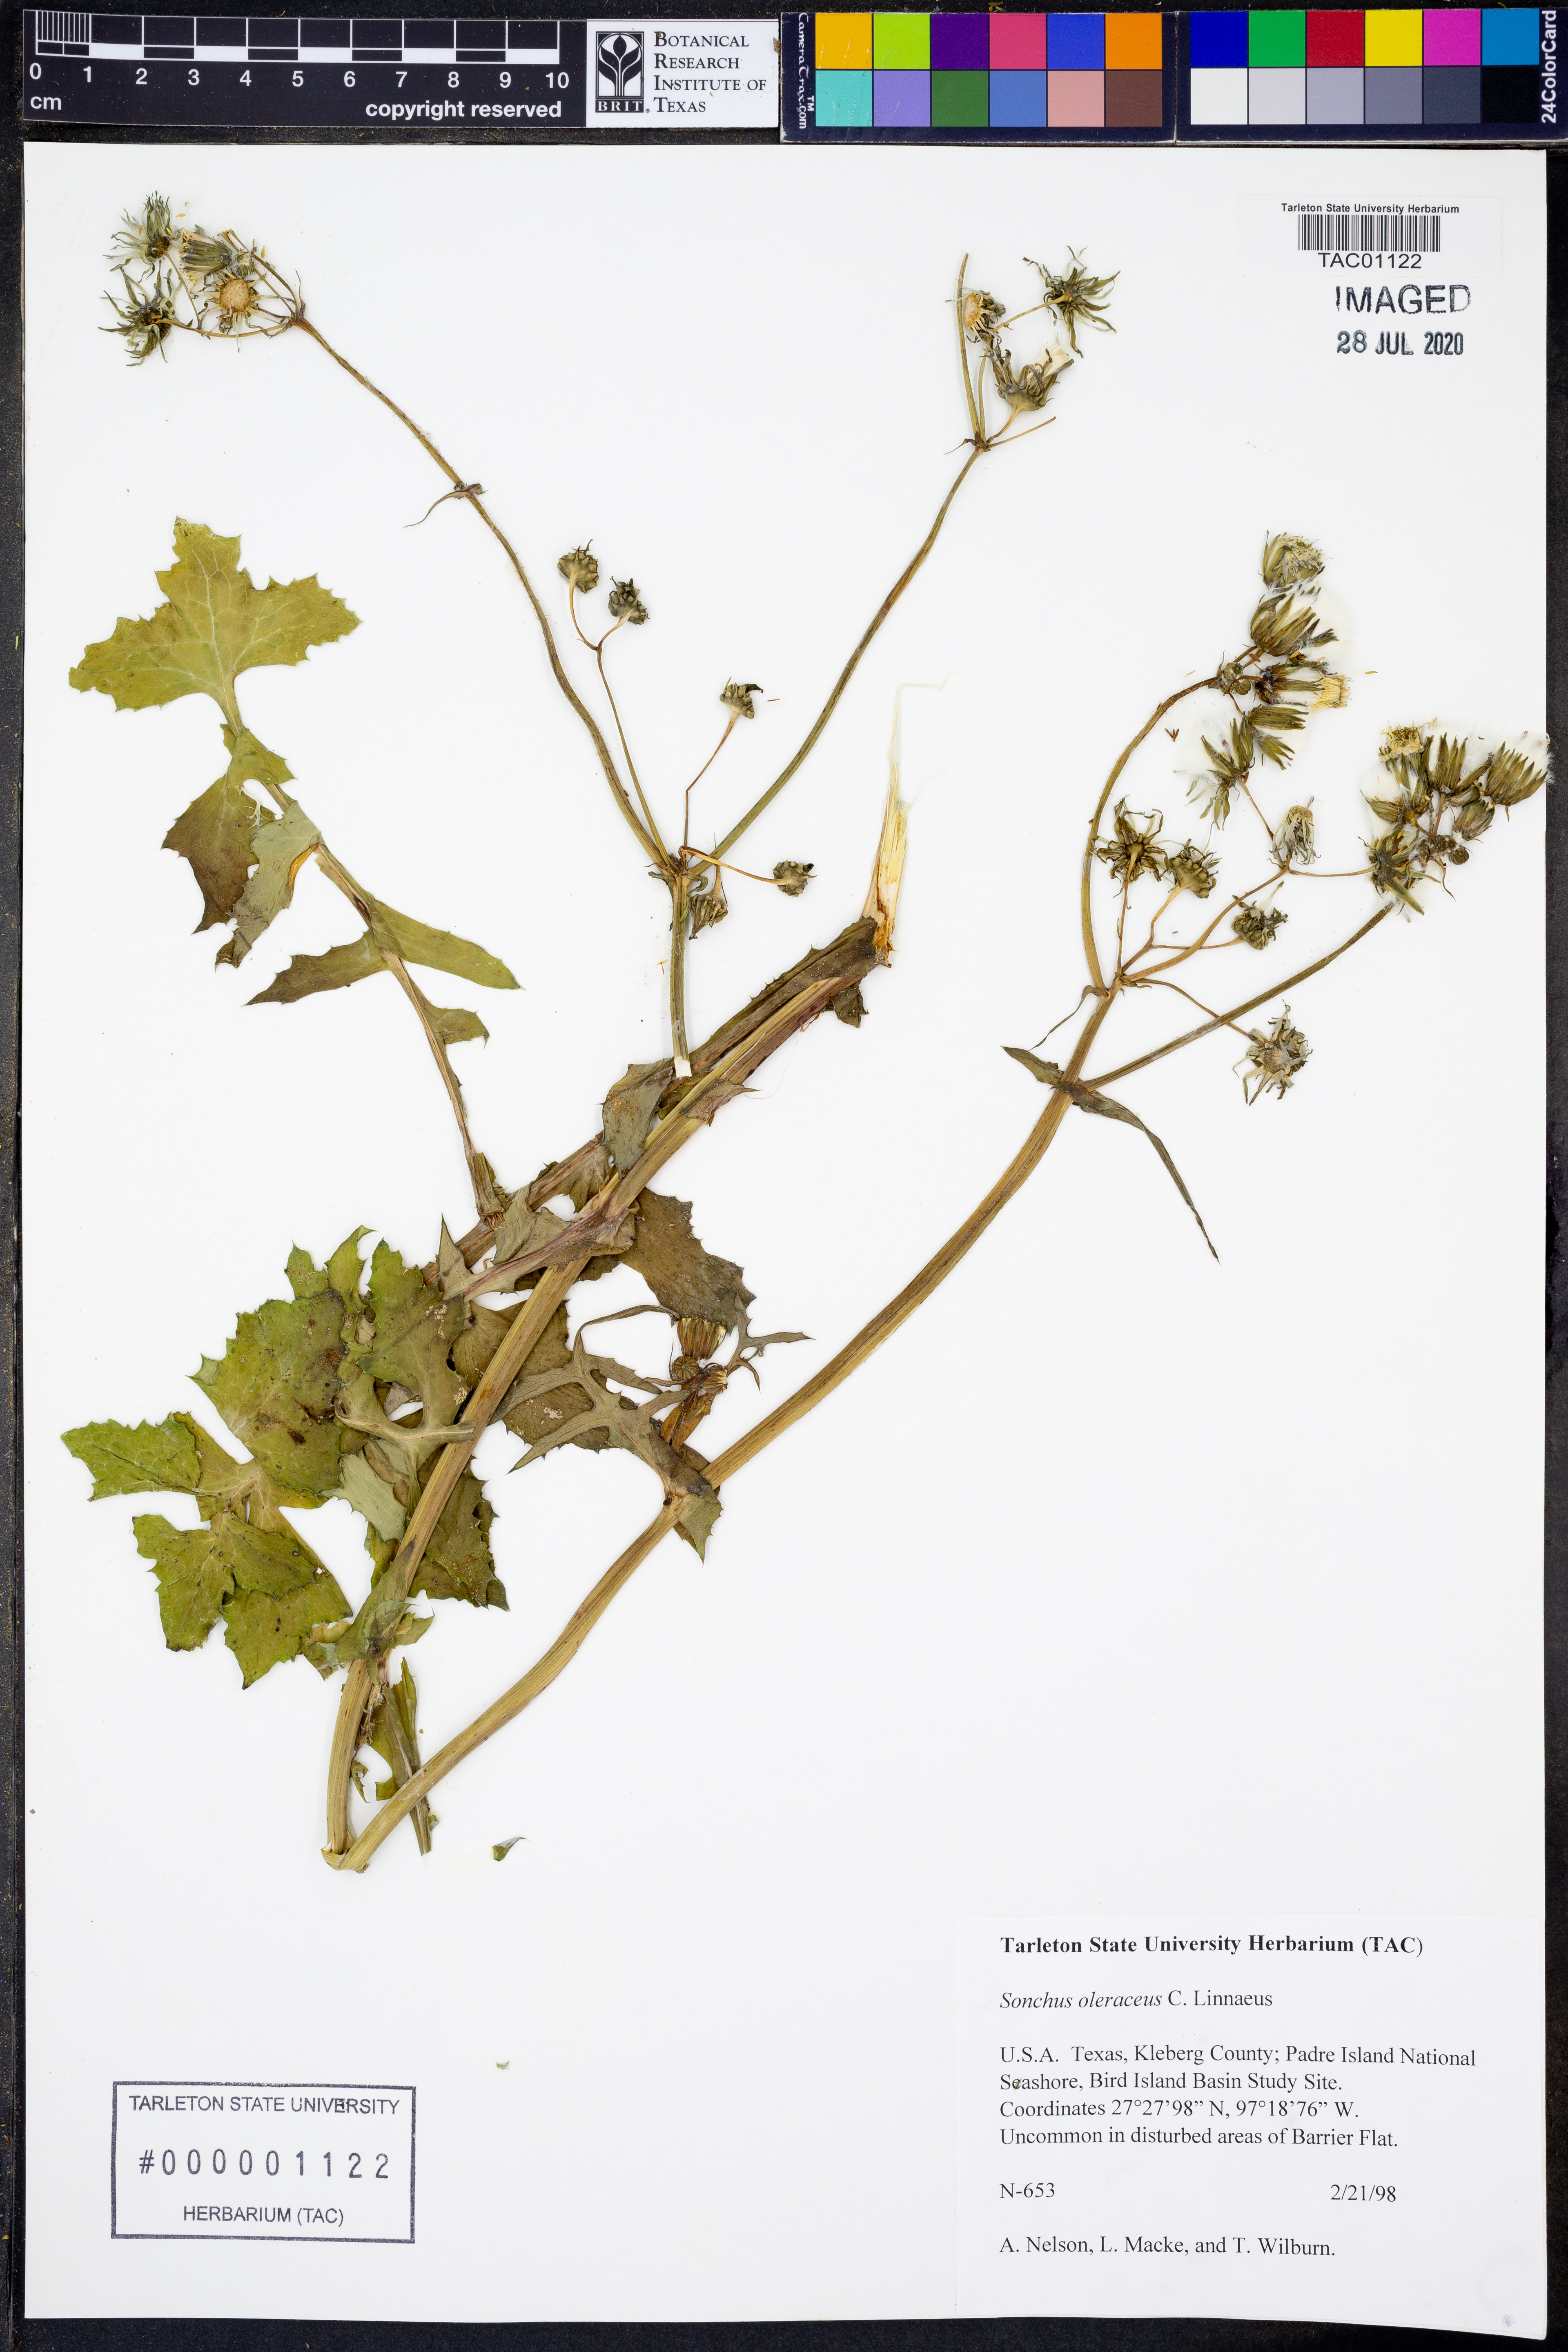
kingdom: Plantae
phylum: Tracheophyta
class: Magnoliopsida
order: Asterales
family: Asteraceae
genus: Sonchus
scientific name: Sonchus asper
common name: Prickly sow-thistle
